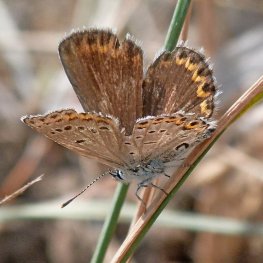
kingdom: Animalia
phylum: Arthropoda
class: Insecta
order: Lepidoptera
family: Lycaenidae
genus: Lycaeides
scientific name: Lycaeides melissa
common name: Melissa Blue
